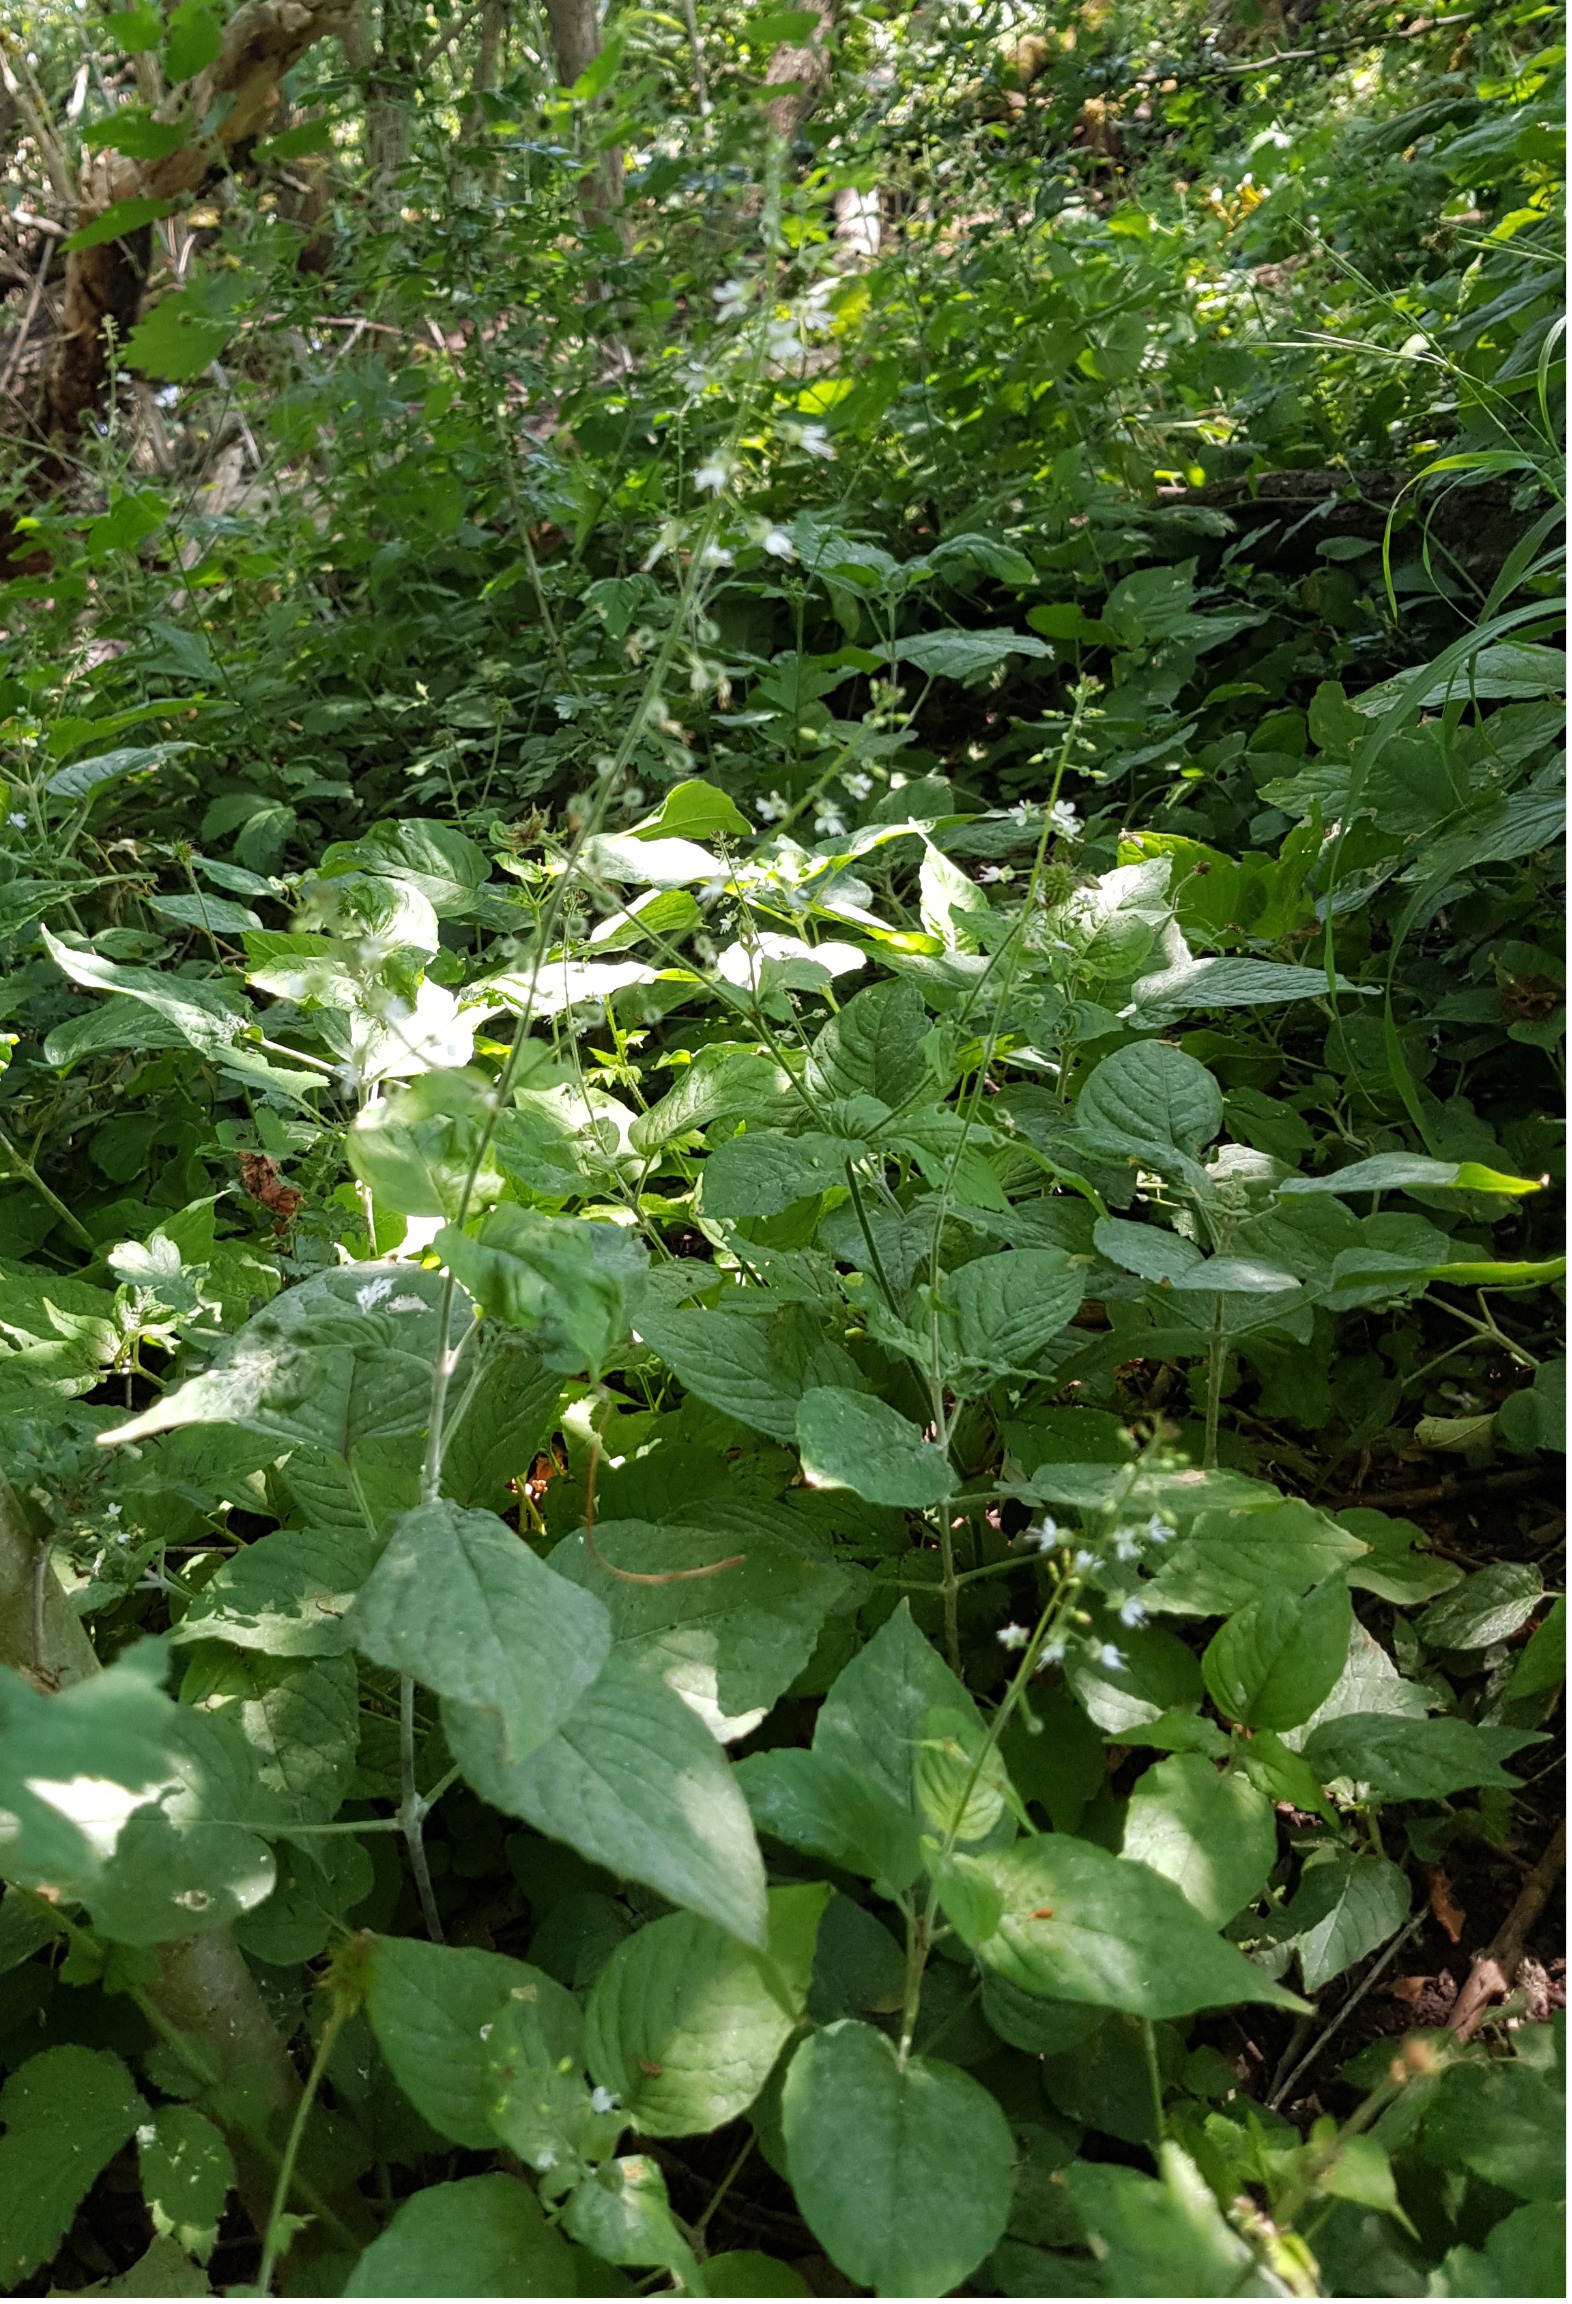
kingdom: Plantae
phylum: Tracheophyta
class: Magnoliopsida
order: Myrtales
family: Onagraceae
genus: Circaea
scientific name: Circaea lutetiana
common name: Dunet steffensurt
